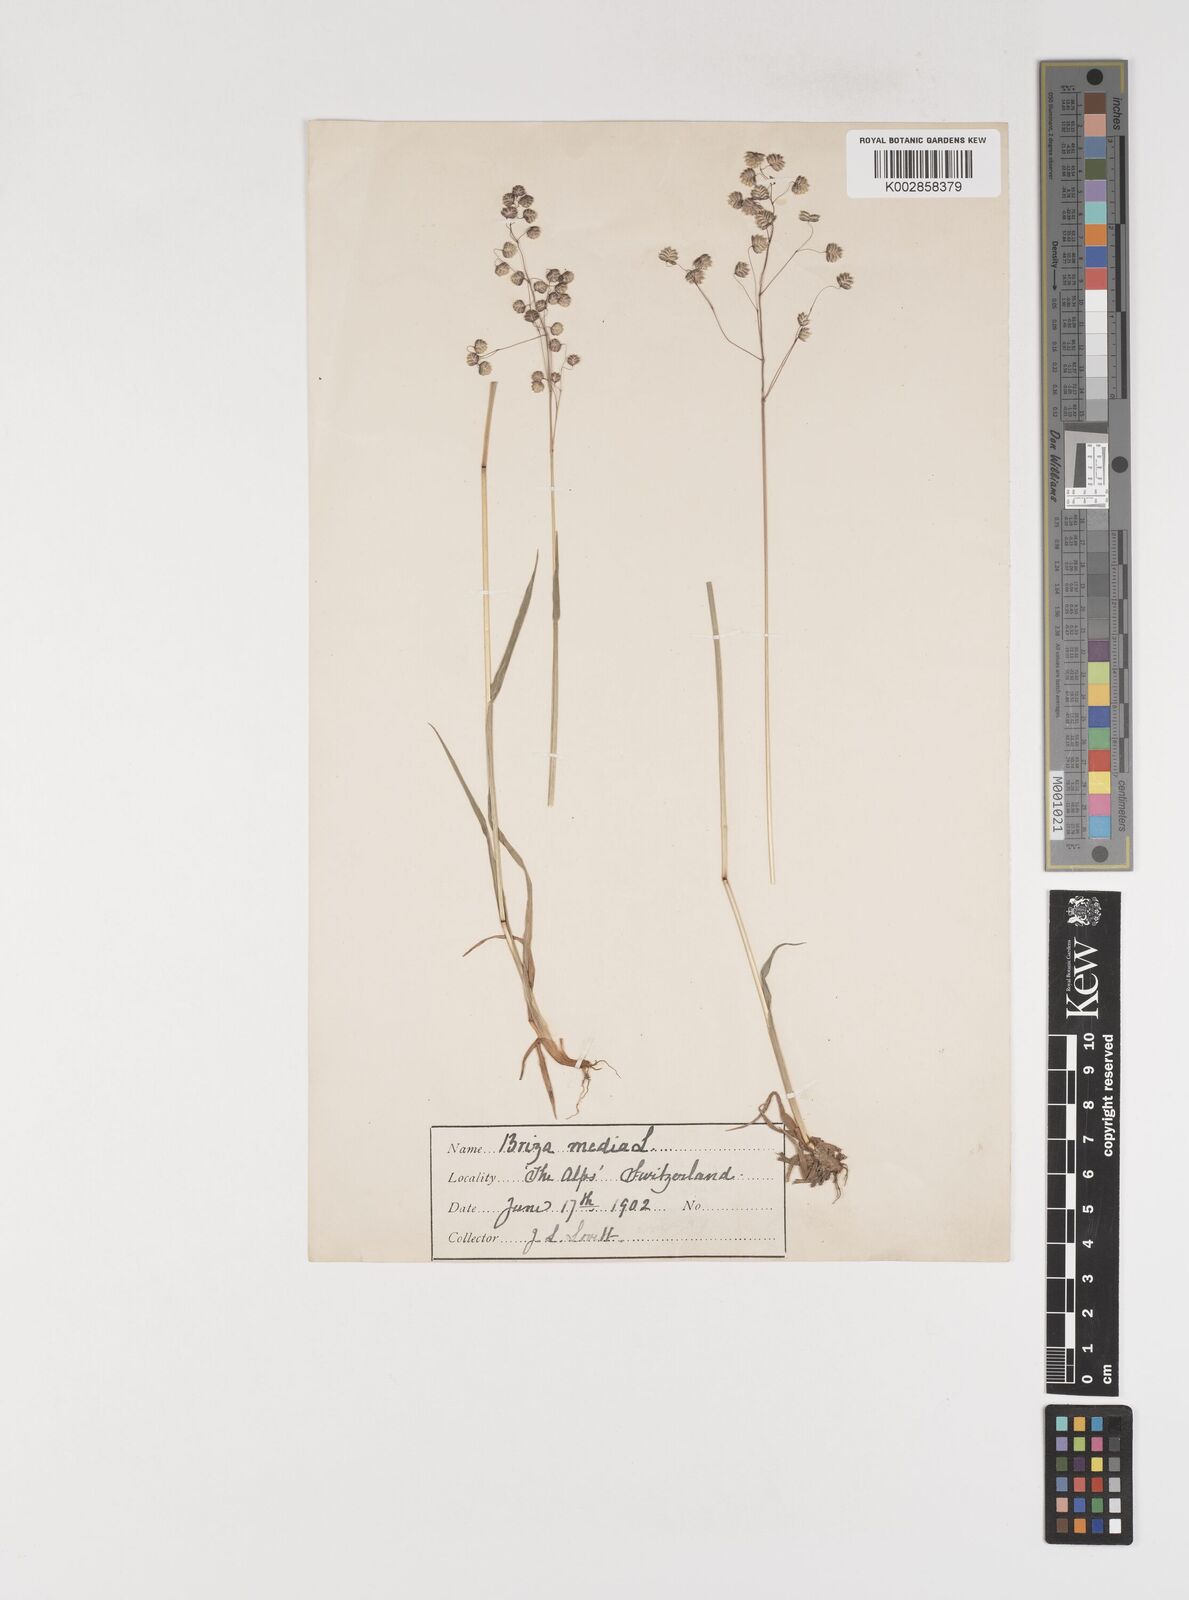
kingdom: Plantae
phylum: Tracheophyta
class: Liliopsida
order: Poales
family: Poaceae
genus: Briza
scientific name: Briza media
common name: Quaking grass
